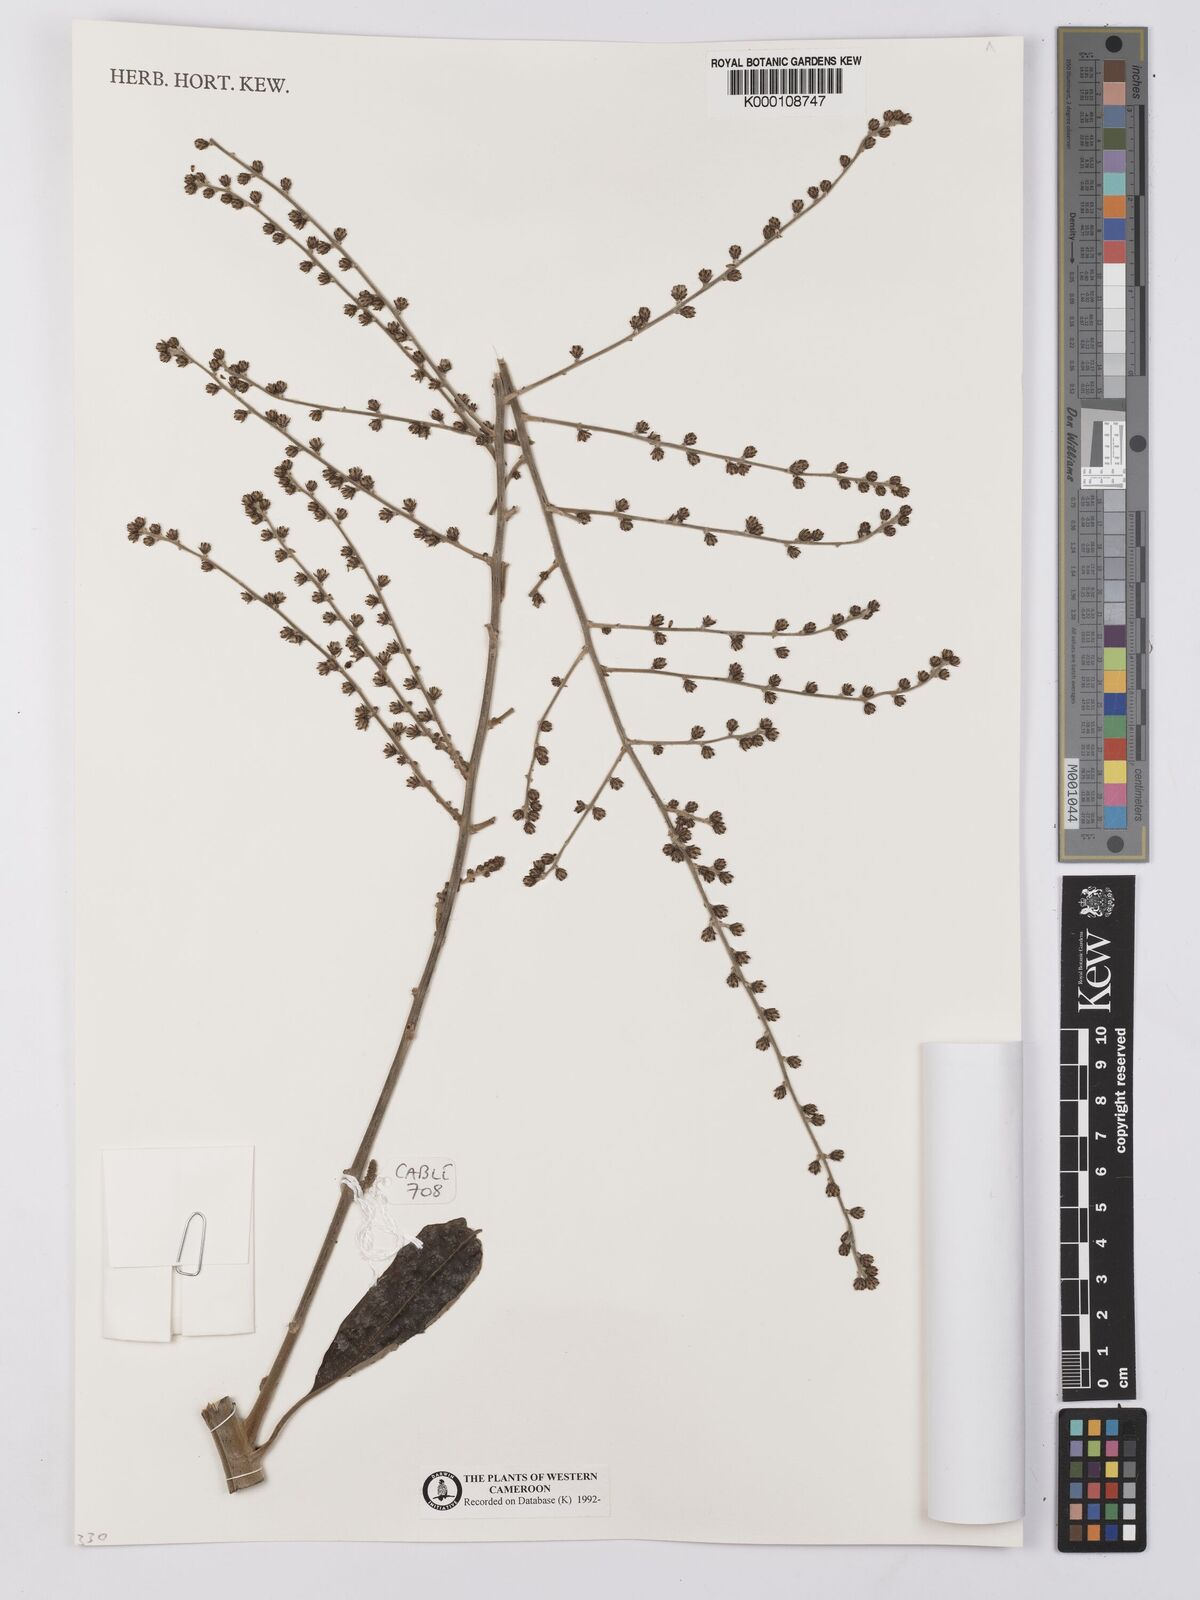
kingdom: Plantae
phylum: Tracheophyta
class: Magnoliopsida
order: Asterales
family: Asteraceae
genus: Brenandendron
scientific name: Brenandendron donianum
